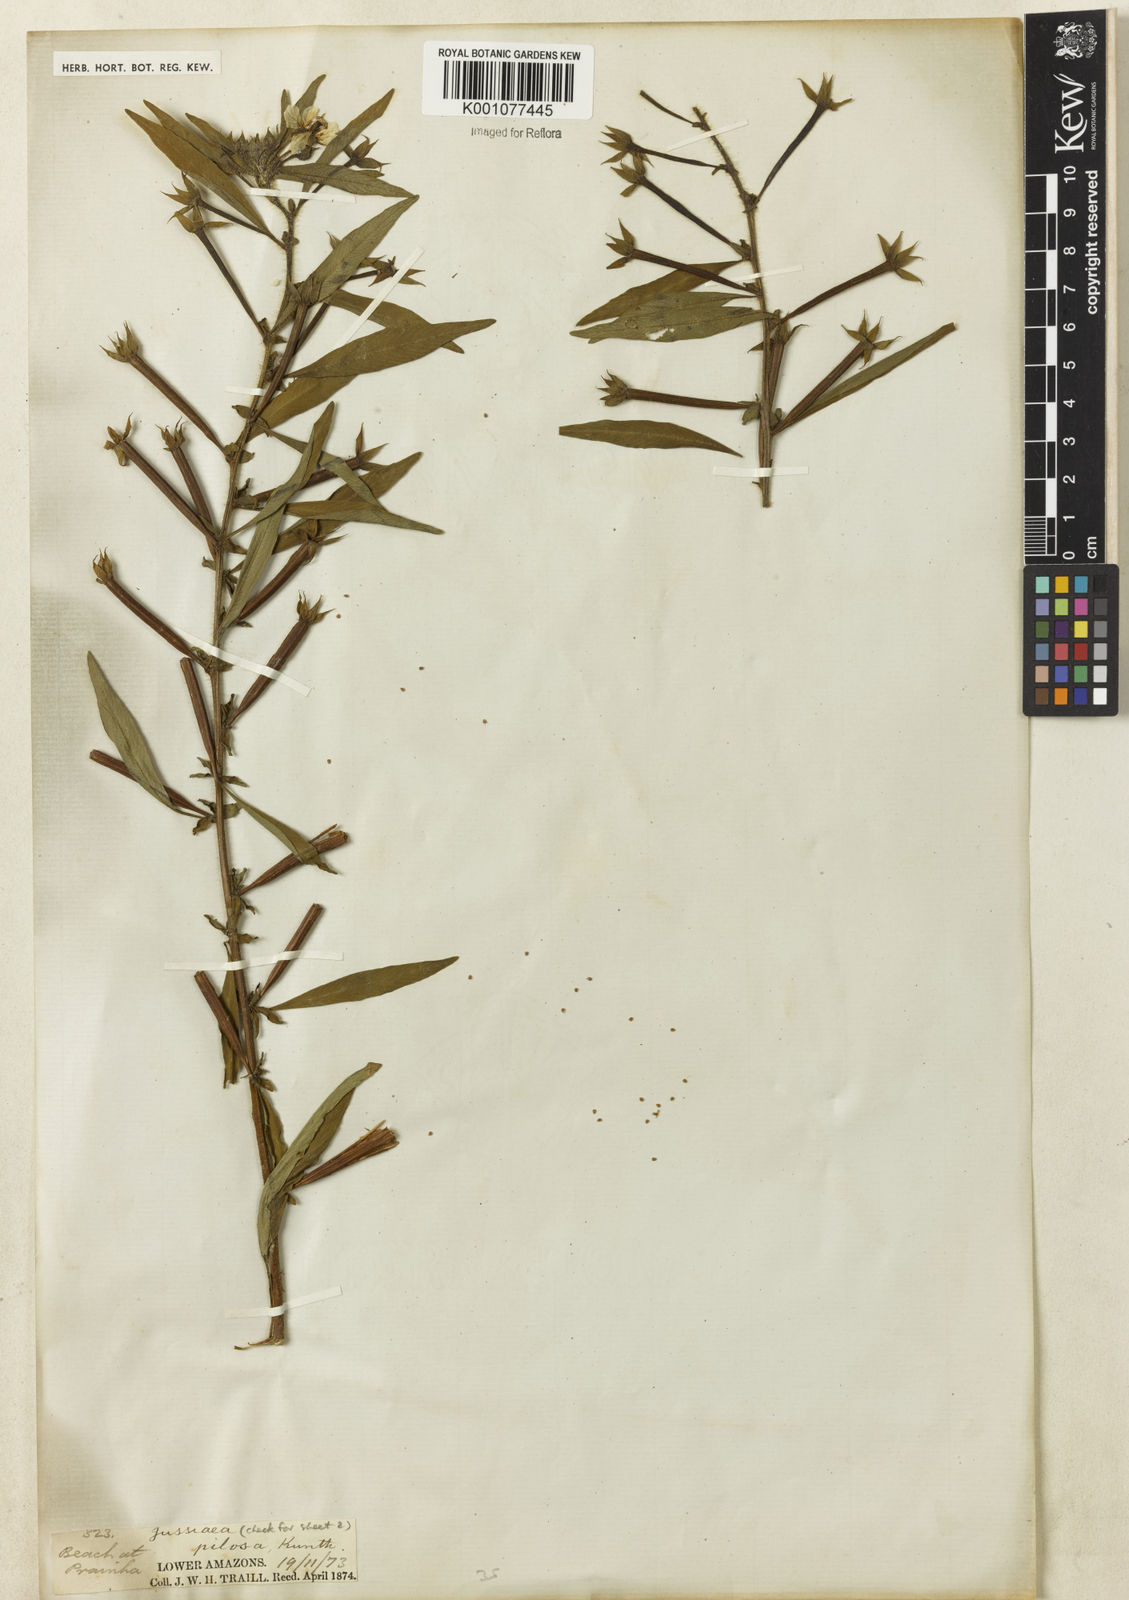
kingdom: Plantae
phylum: Tracheophyta
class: Magnoliopsida
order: Myrtales
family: Onagraceae
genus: Ludwigia
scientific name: Ludwigia leptocarpa
